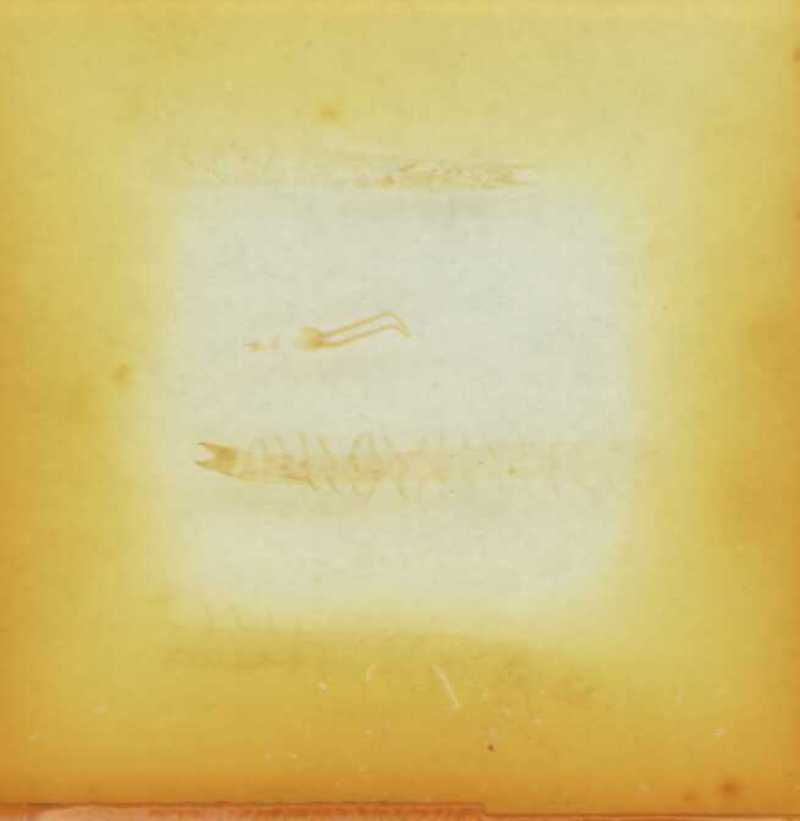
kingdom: Animalia
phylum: Arthropoda
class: Chilopoda
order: Geophilomorpha
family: Schendylidae
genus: Schendyla
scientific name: Schendyla montana
